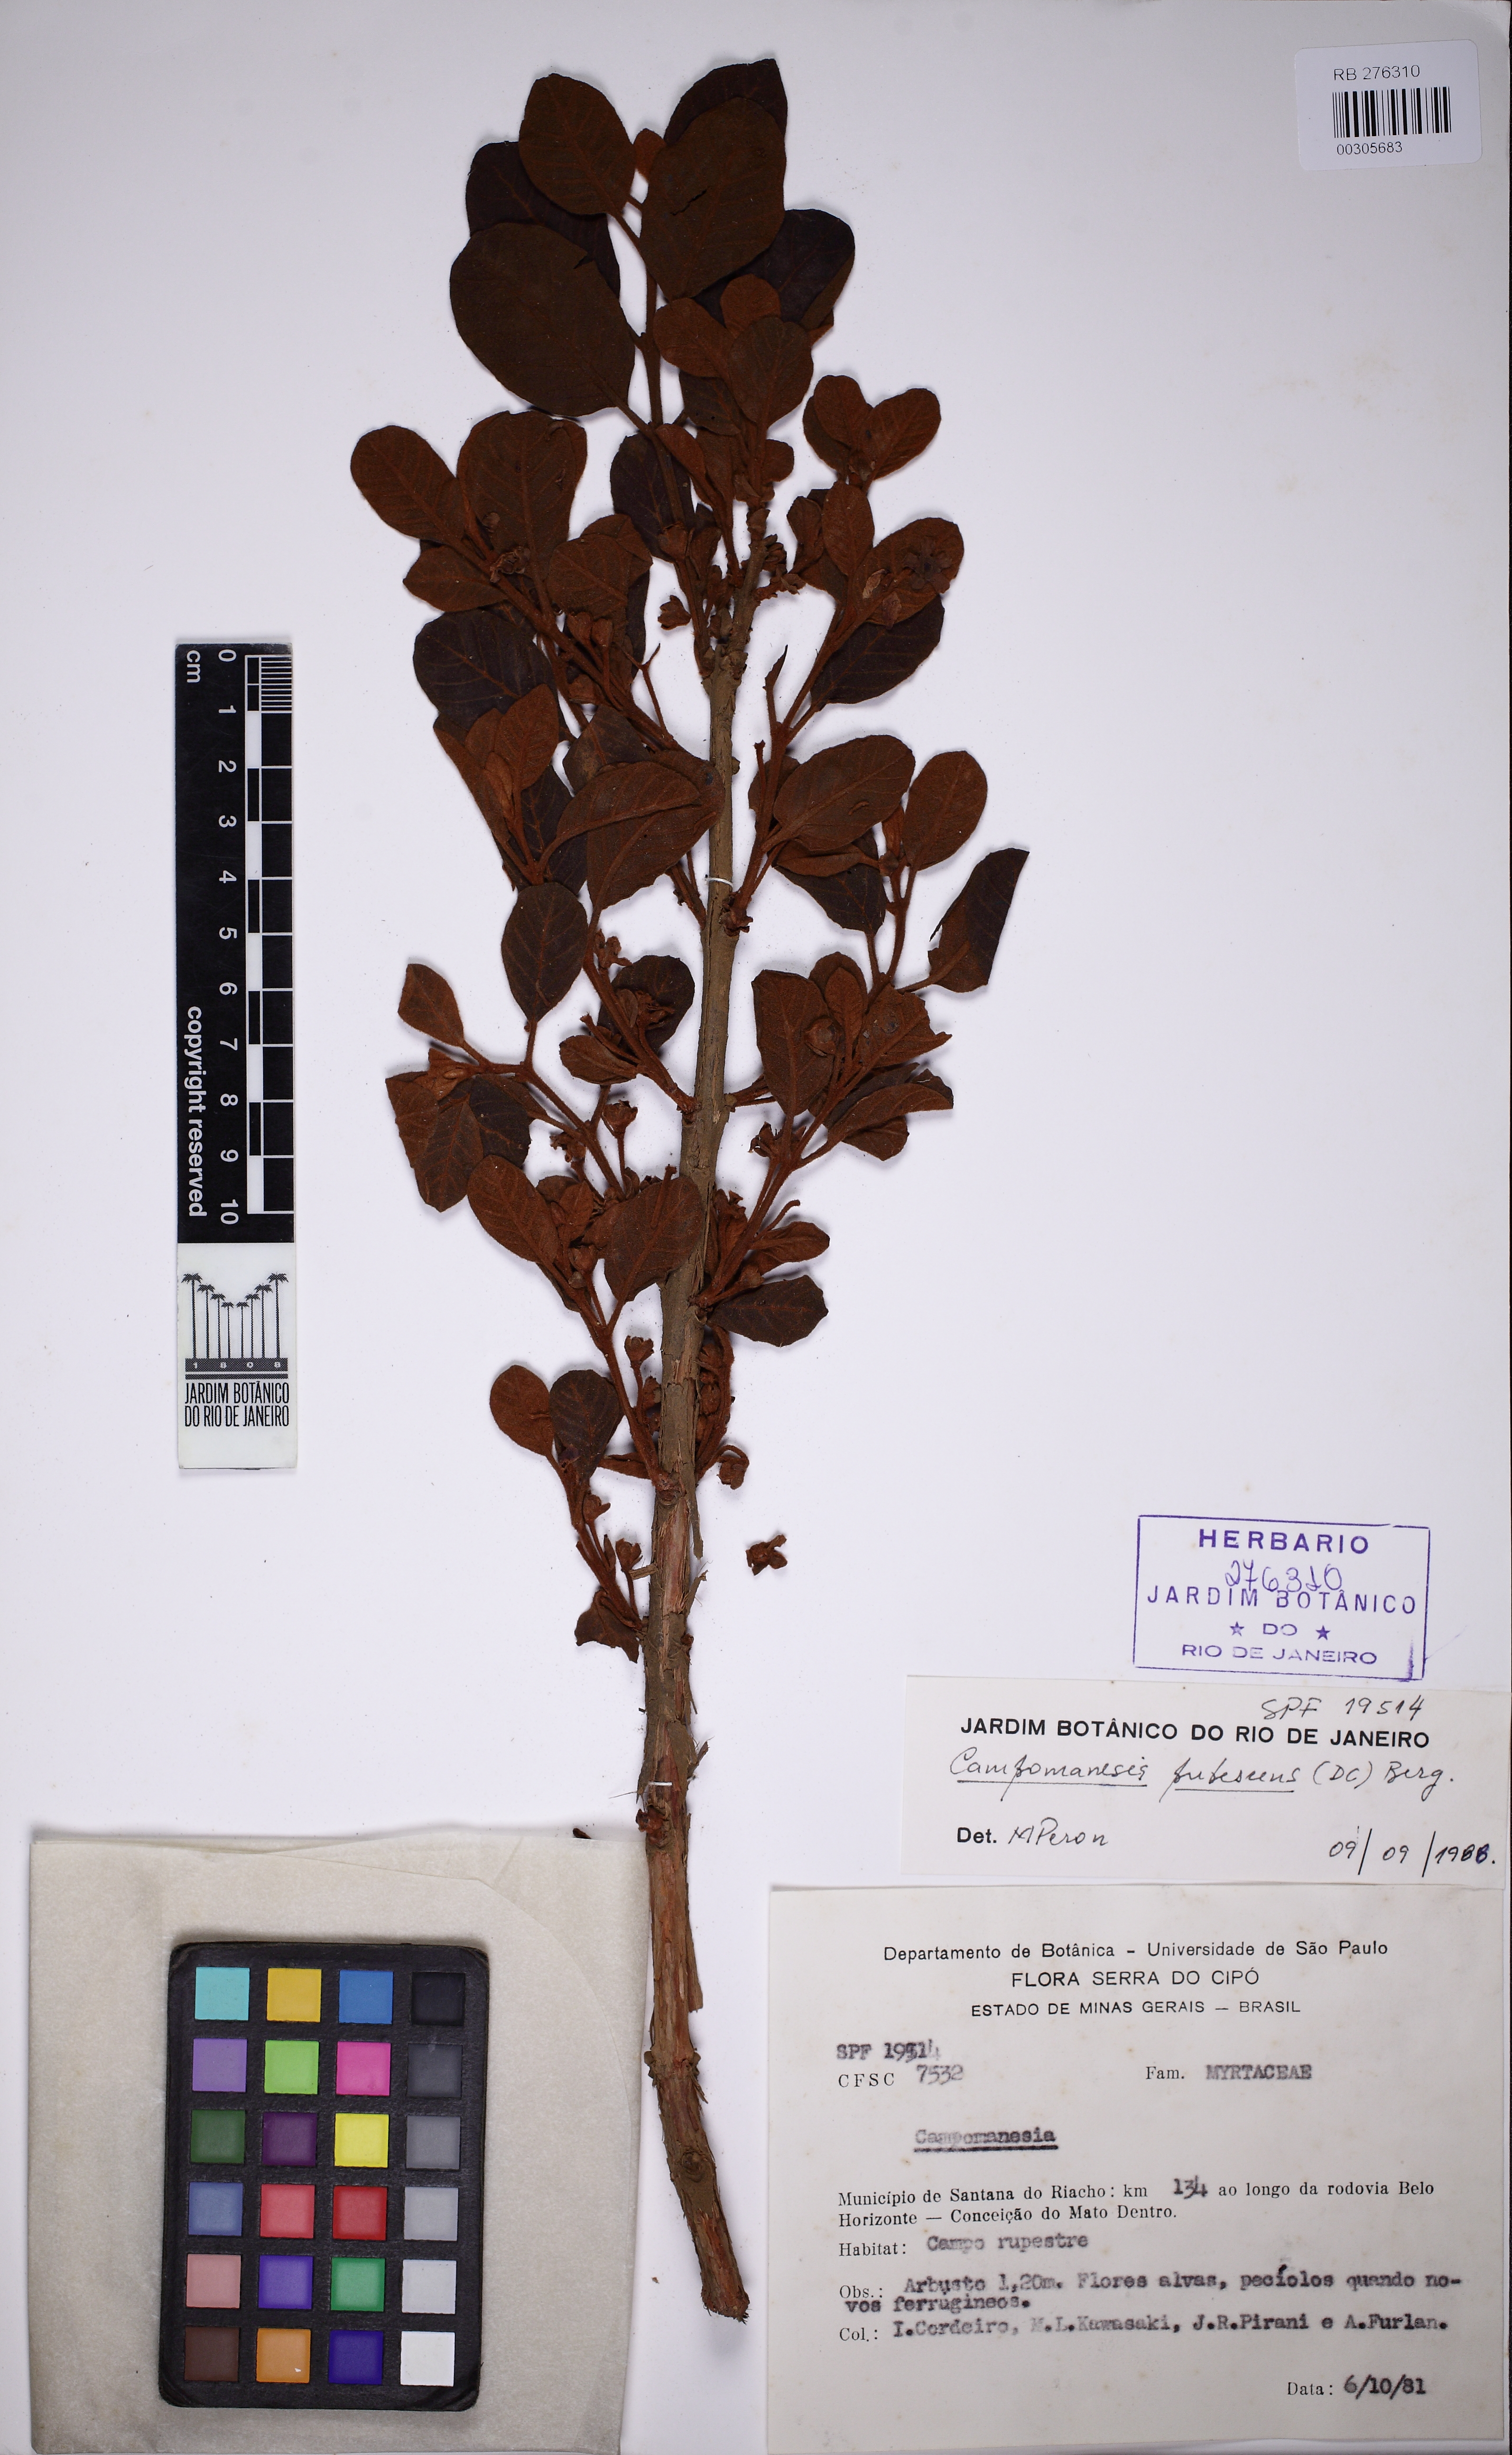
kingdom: Plantae
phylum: Tracheophyta
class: Magnoliopsida
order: Myrtales
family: Myrtaceae
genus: Campomanesia
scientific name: Campomanesia pubescens
